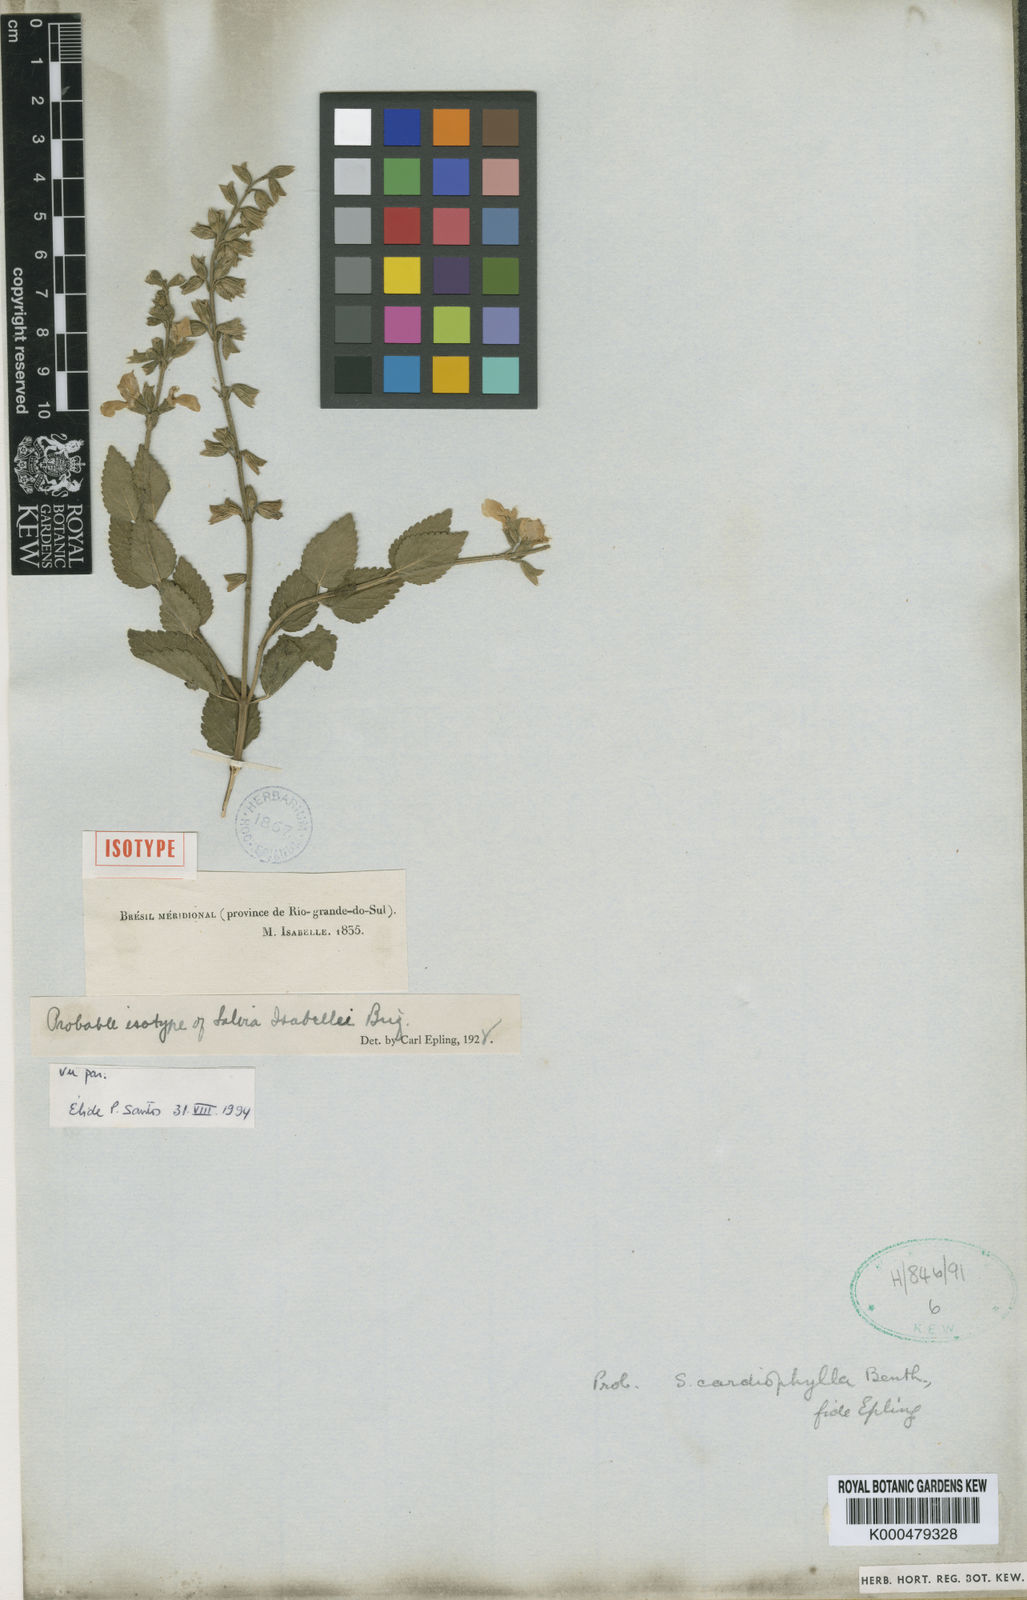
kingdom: Plantae
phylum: Tracheophyta
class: Magnoliopsida
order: Lamiales
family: Lamiaceae
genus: Salvia
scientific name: Salvia ovalifolia
